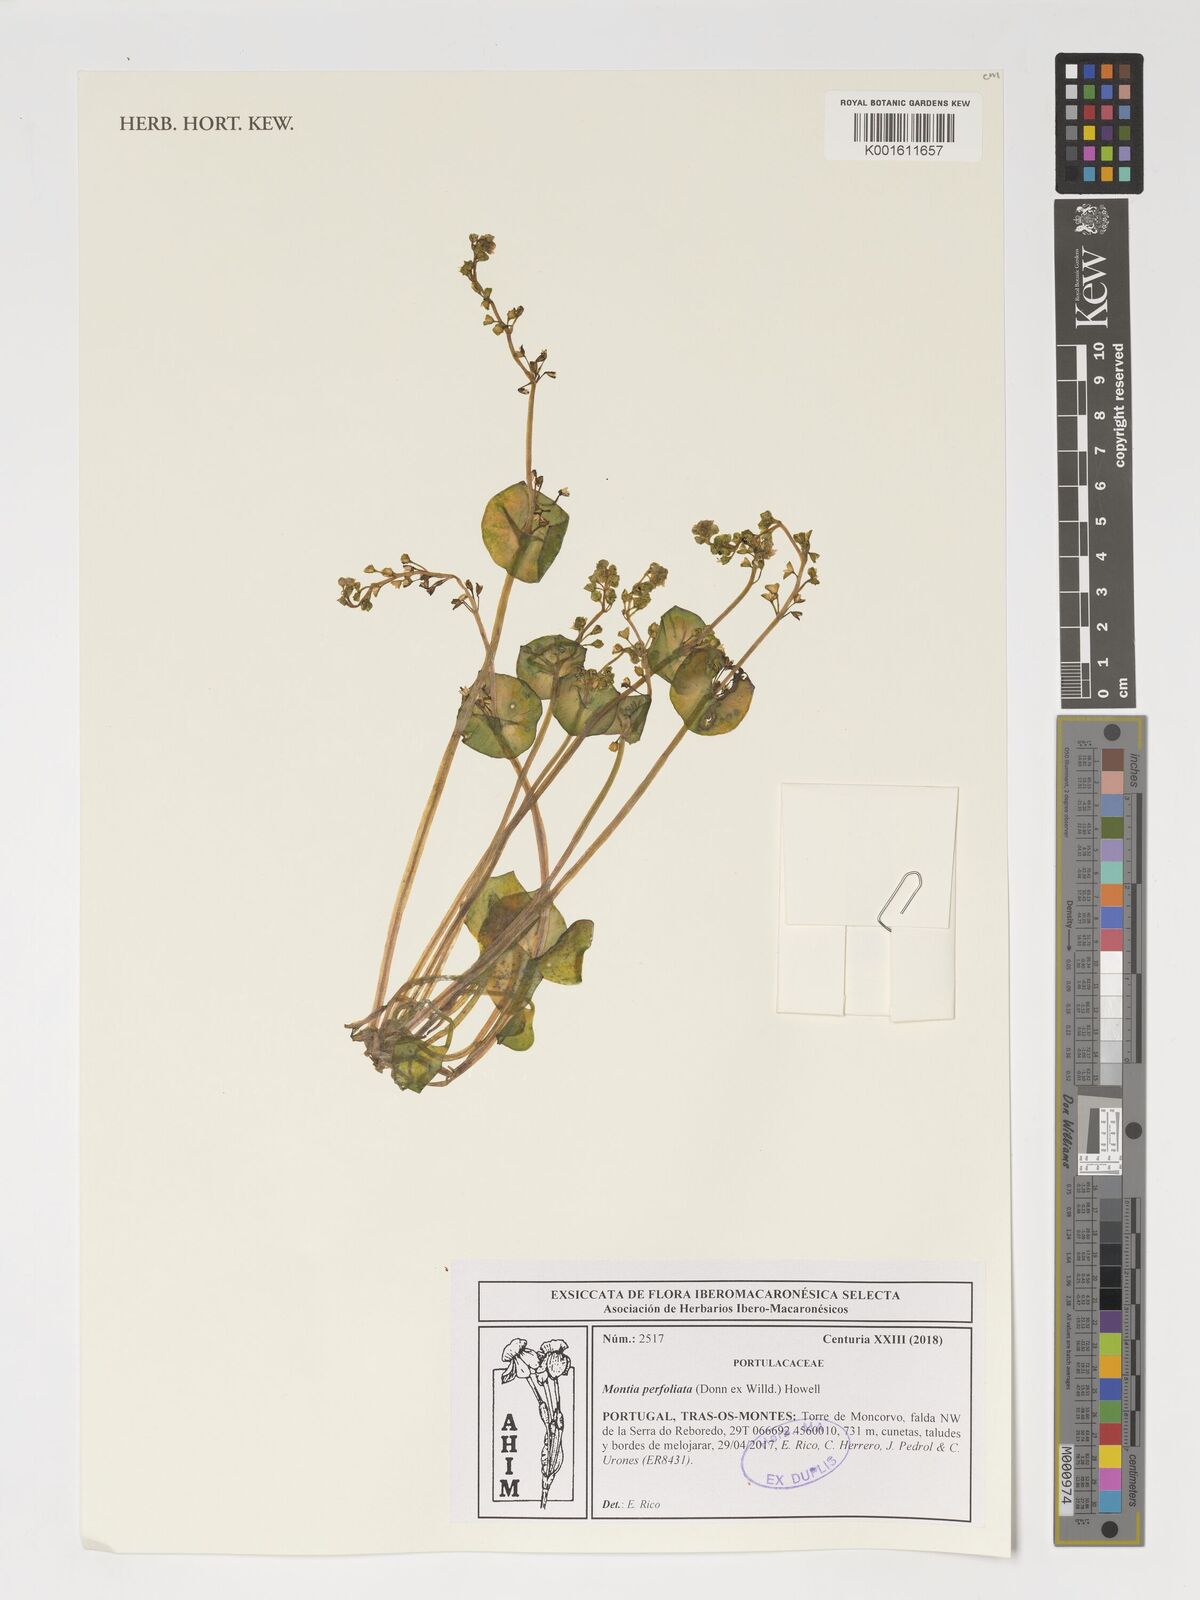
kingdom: Plantae
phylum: Tracheophyta
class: Magnoliopsida
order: Caryophyllales
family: Montiaceae
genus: Claytonia
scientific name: Claytonia perfoliata
